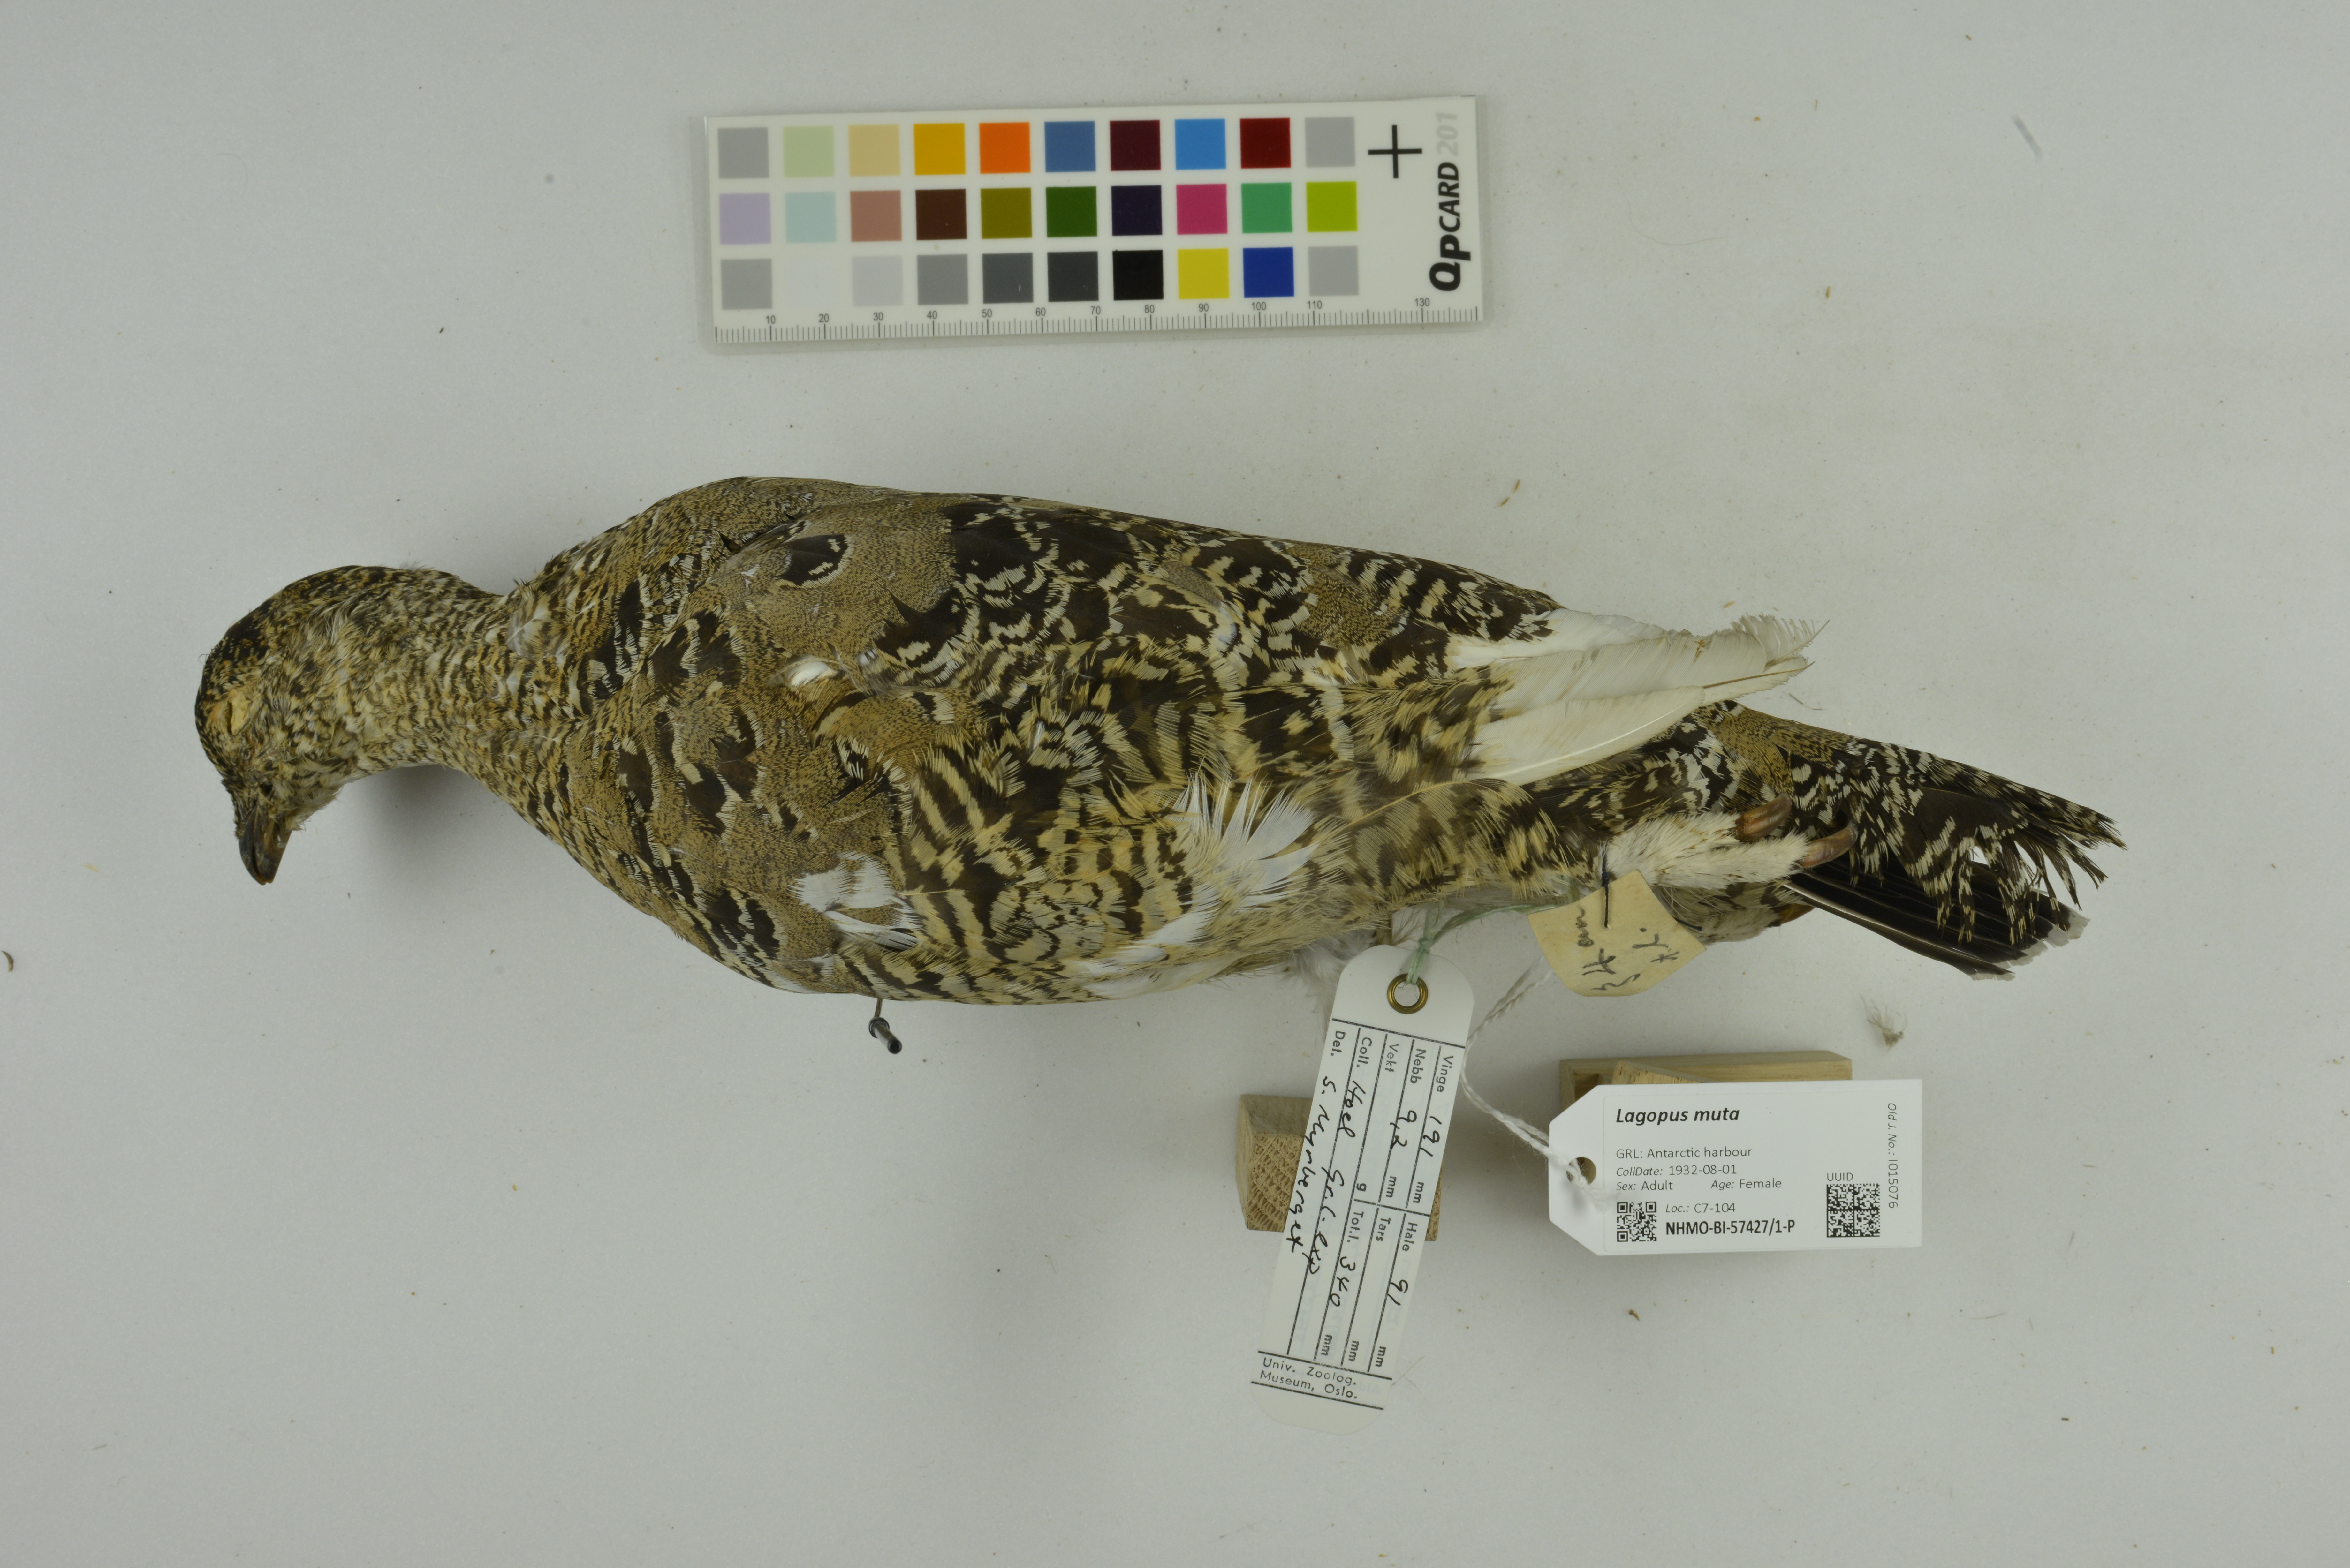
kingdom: Animalia
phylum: Chordata
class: Aves
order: Galliformes
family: Phasianidae
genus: Lagopus
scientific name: Lagopus muta
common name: Rock ptarmigan
